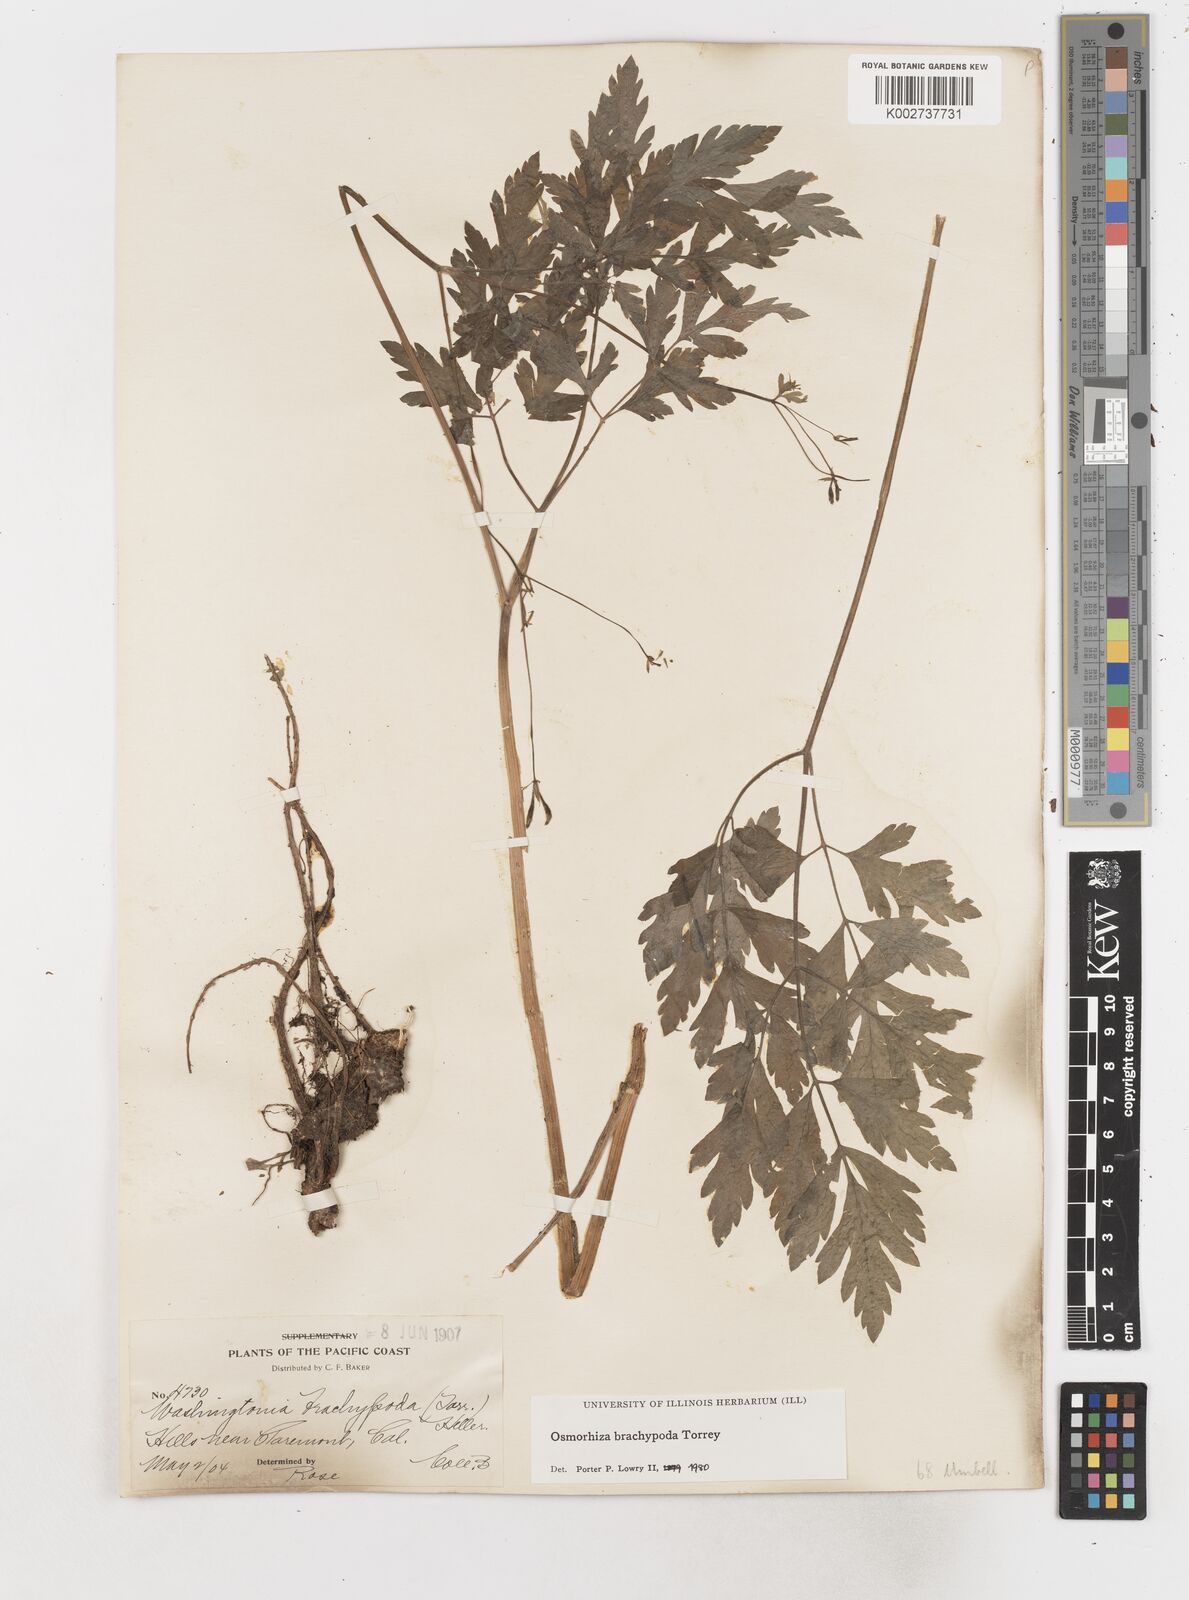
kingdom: Plantae
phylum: Tracheophyta
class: Magnoliopsida
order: Apiales
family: Apiaceae
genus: Osmorhiza
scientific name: Osmorhiza brachypoda
